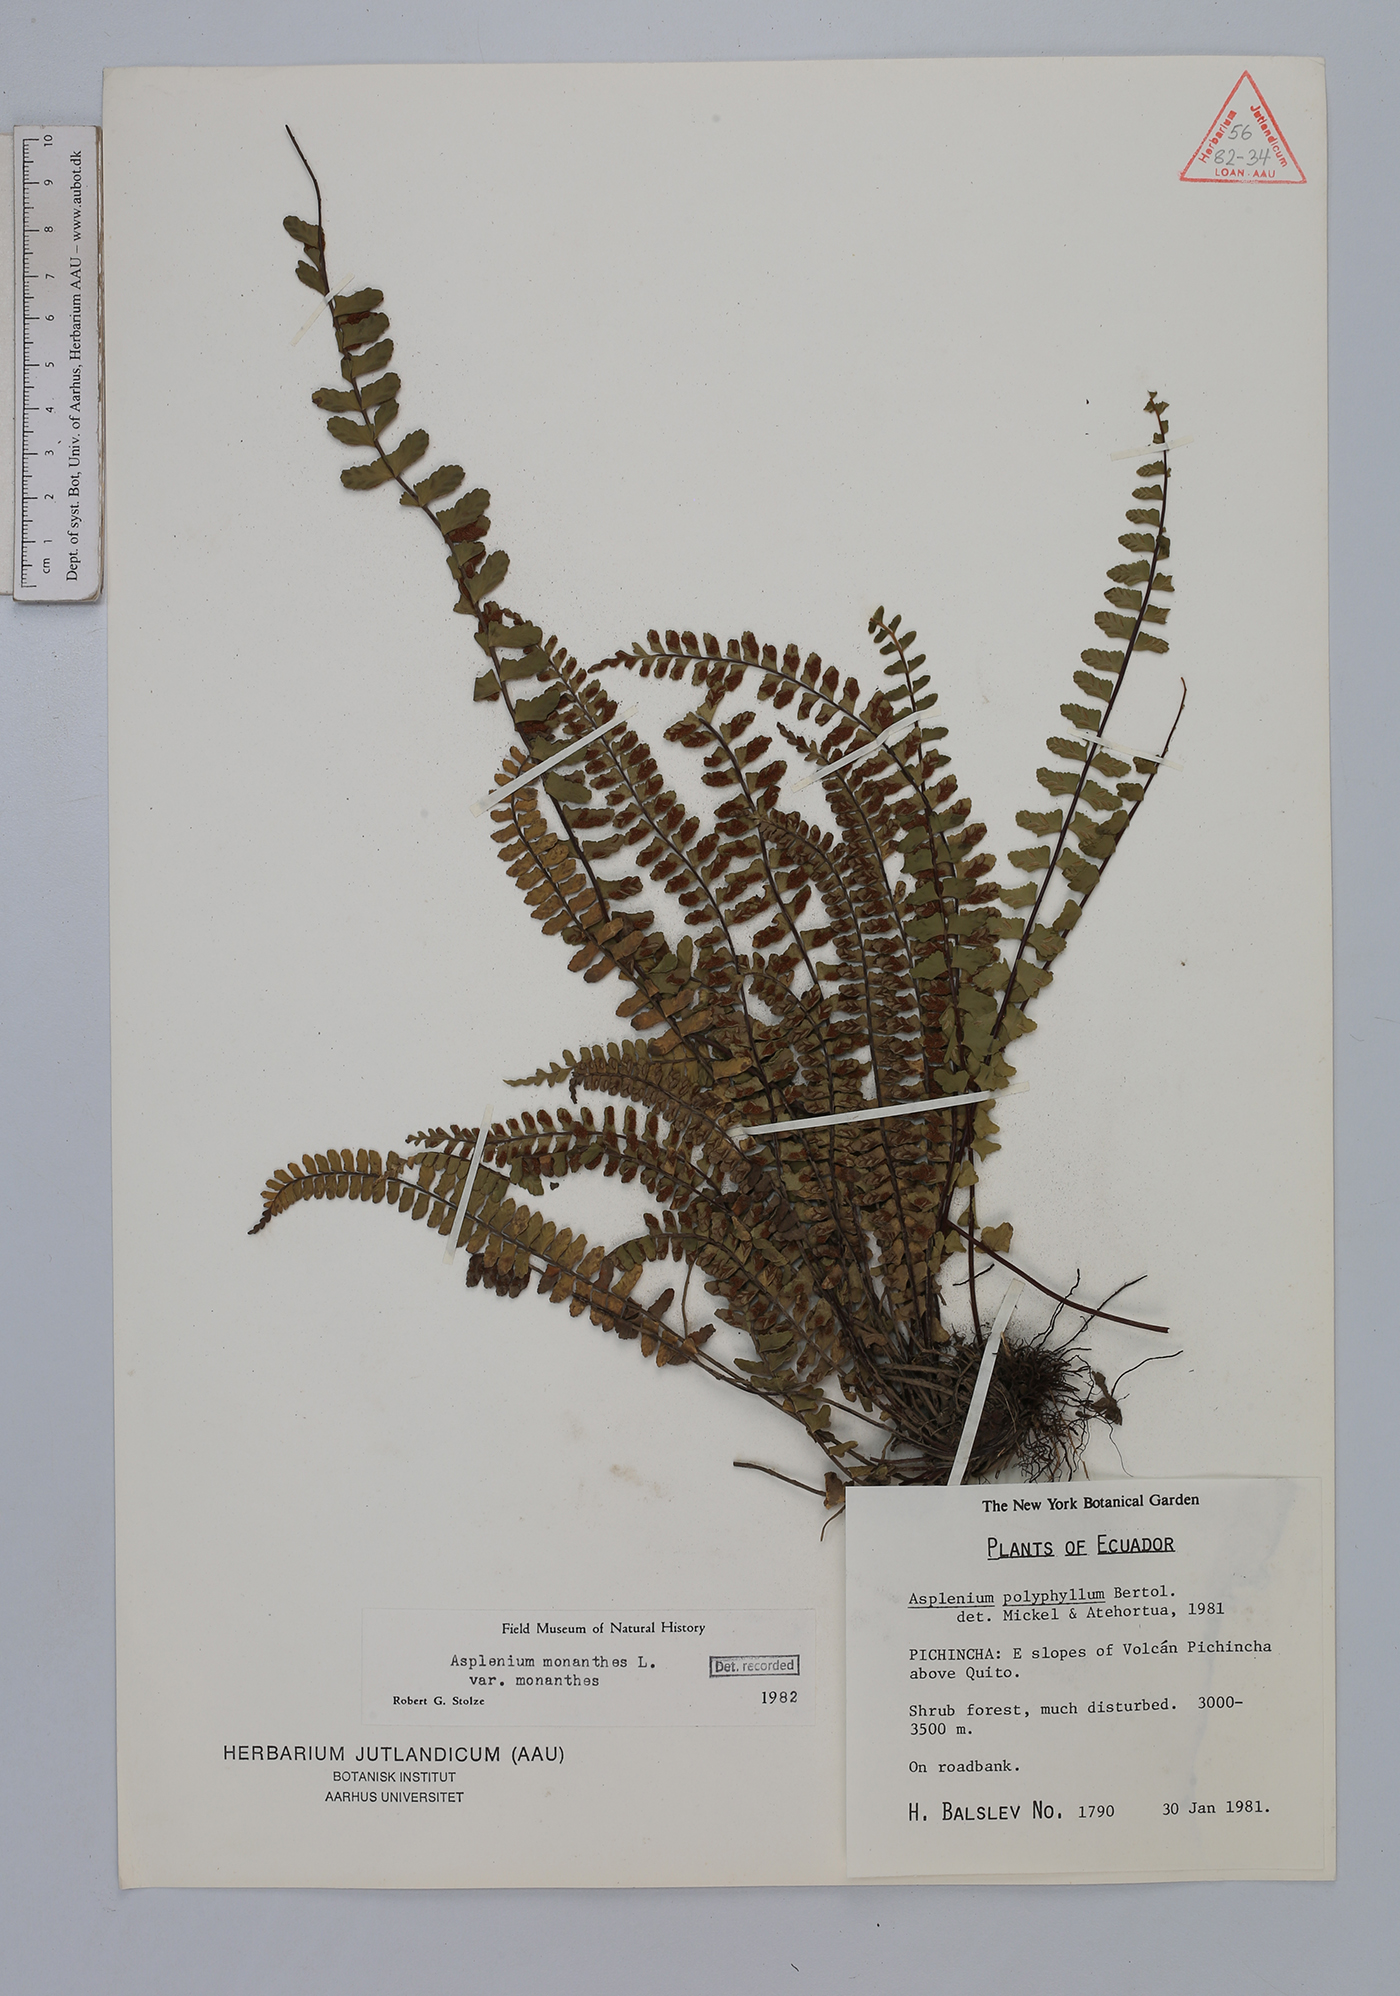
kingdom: Plantae
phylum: Tracheophyta
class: Polypodiopsida
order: Polypodiales
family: Aspleniaceae
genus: Asplenium
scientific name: Asplenium polyphyllum
